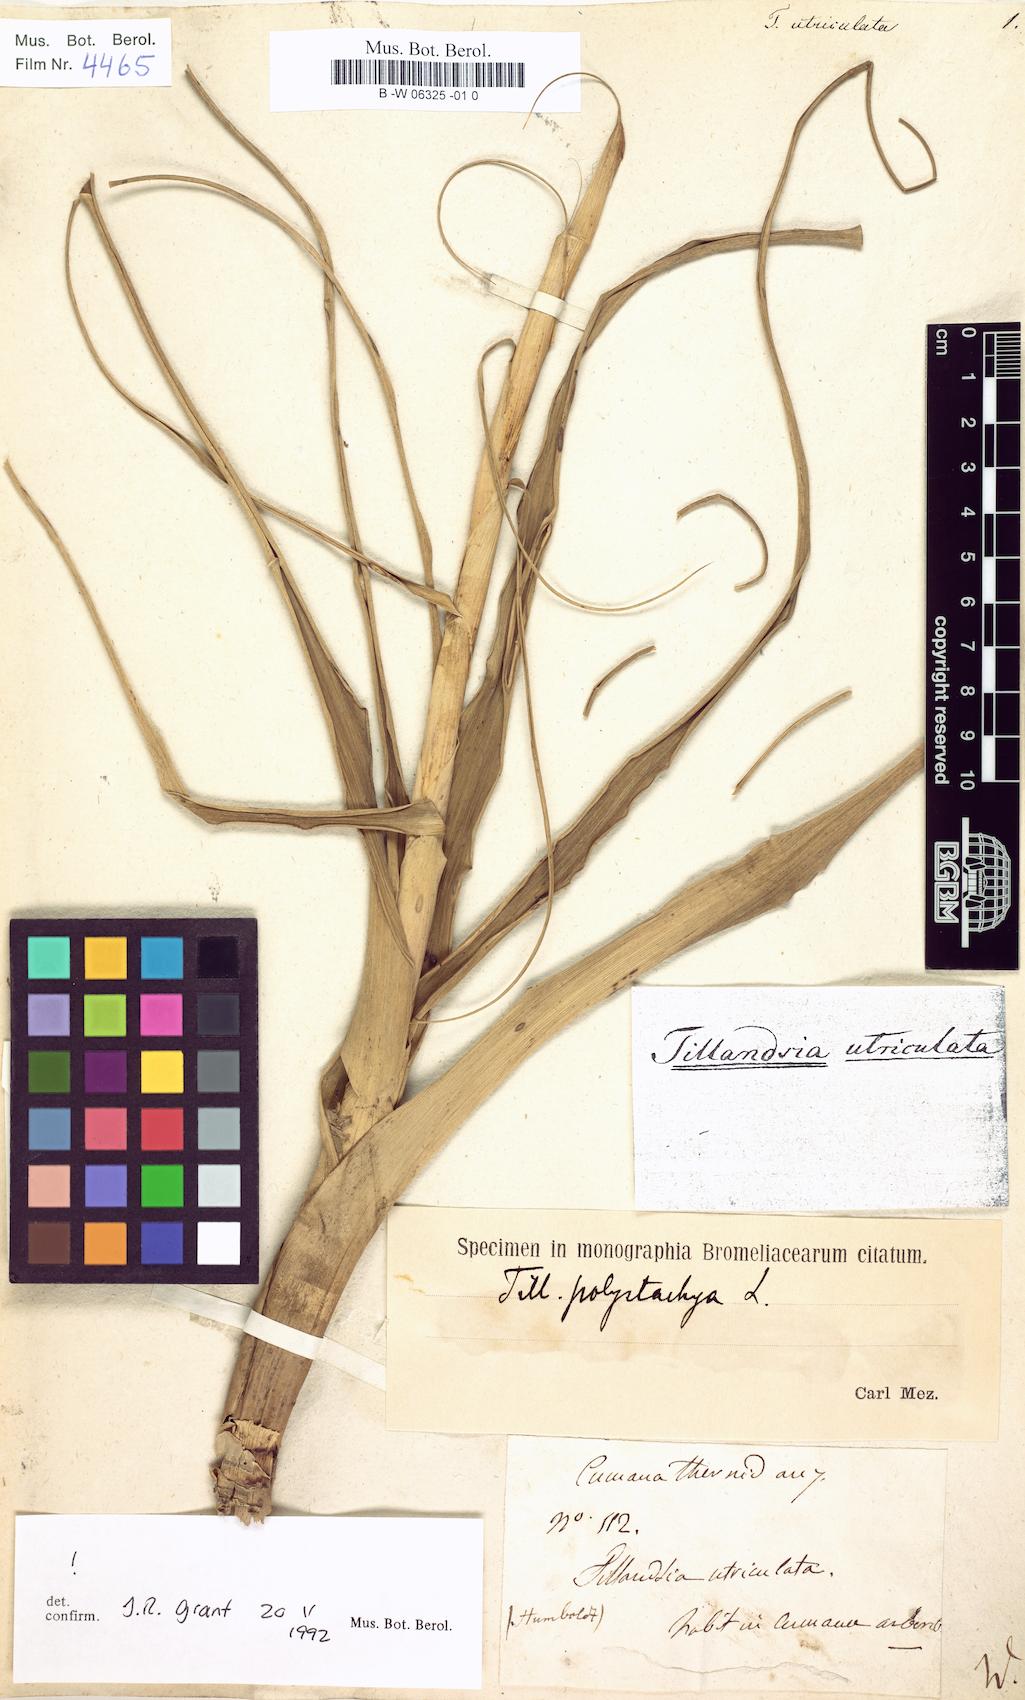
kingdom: Plantae
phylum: Tracheophyta
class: Liliopsida
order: Poales
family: Bromeliaceae
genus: Tillandsia
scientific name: Tillandsia utriculata
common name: Wild pine
